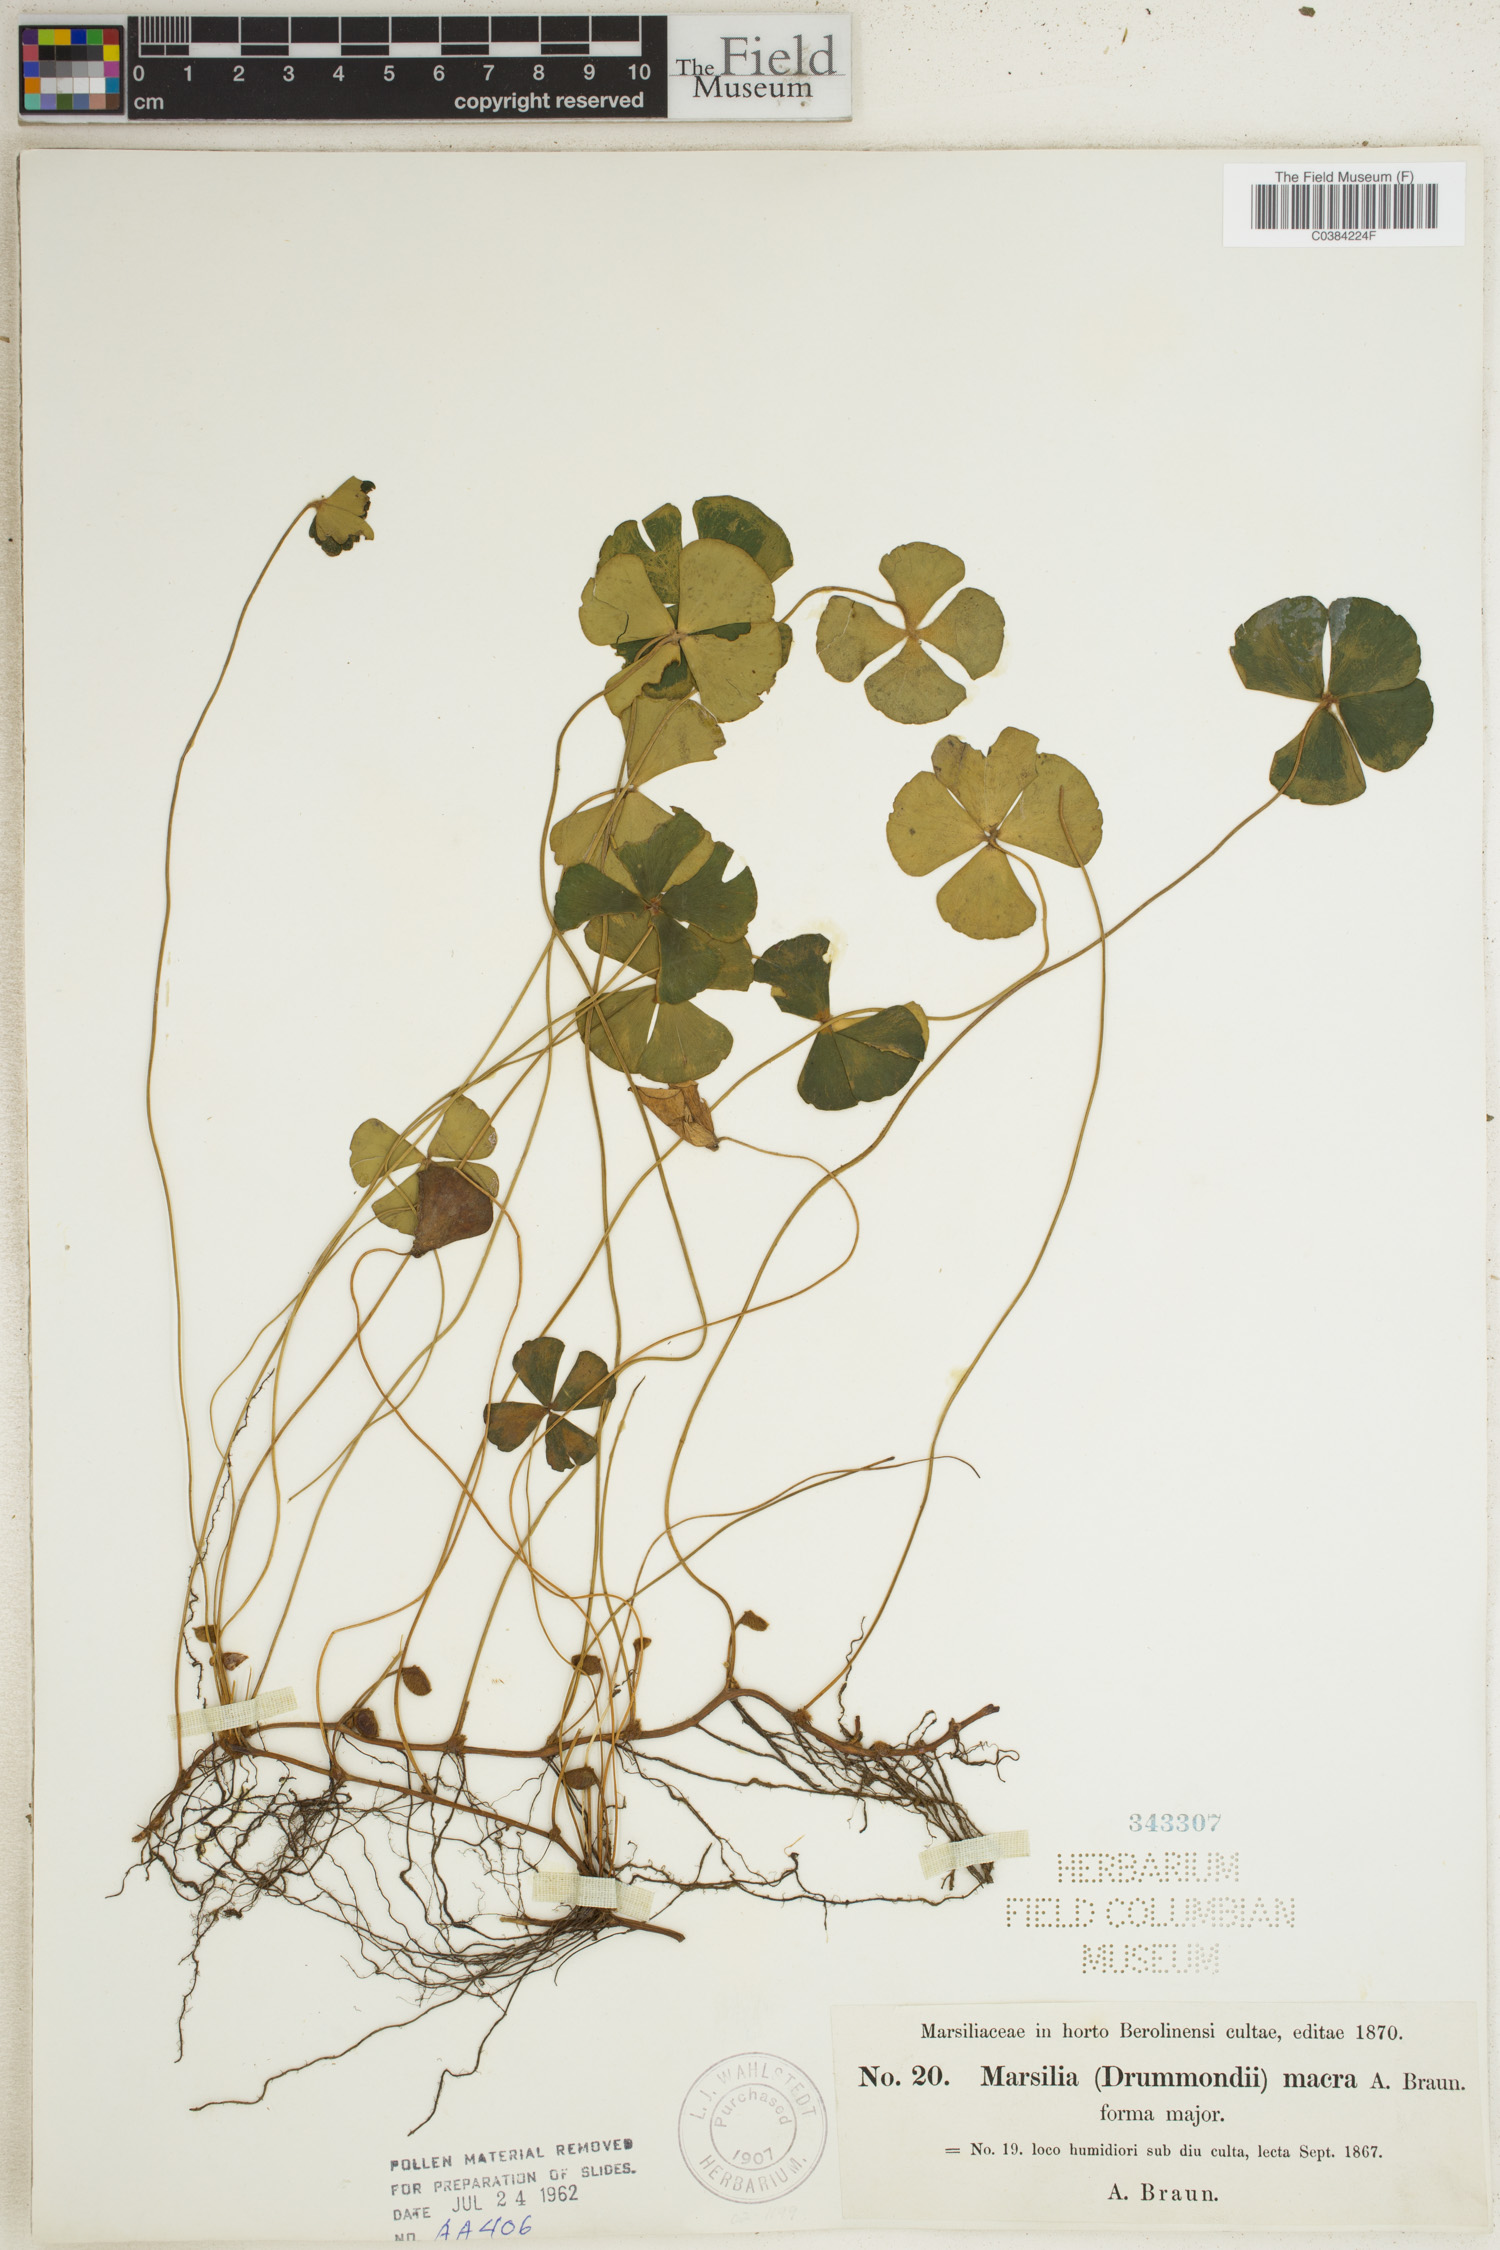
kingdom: Plantae
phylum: Tracheophyta
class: Polypodiopsida
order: Salviniales
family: Marsileaceae
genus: Marsilea
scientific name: Marsilea drummondii
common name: Nardoo
